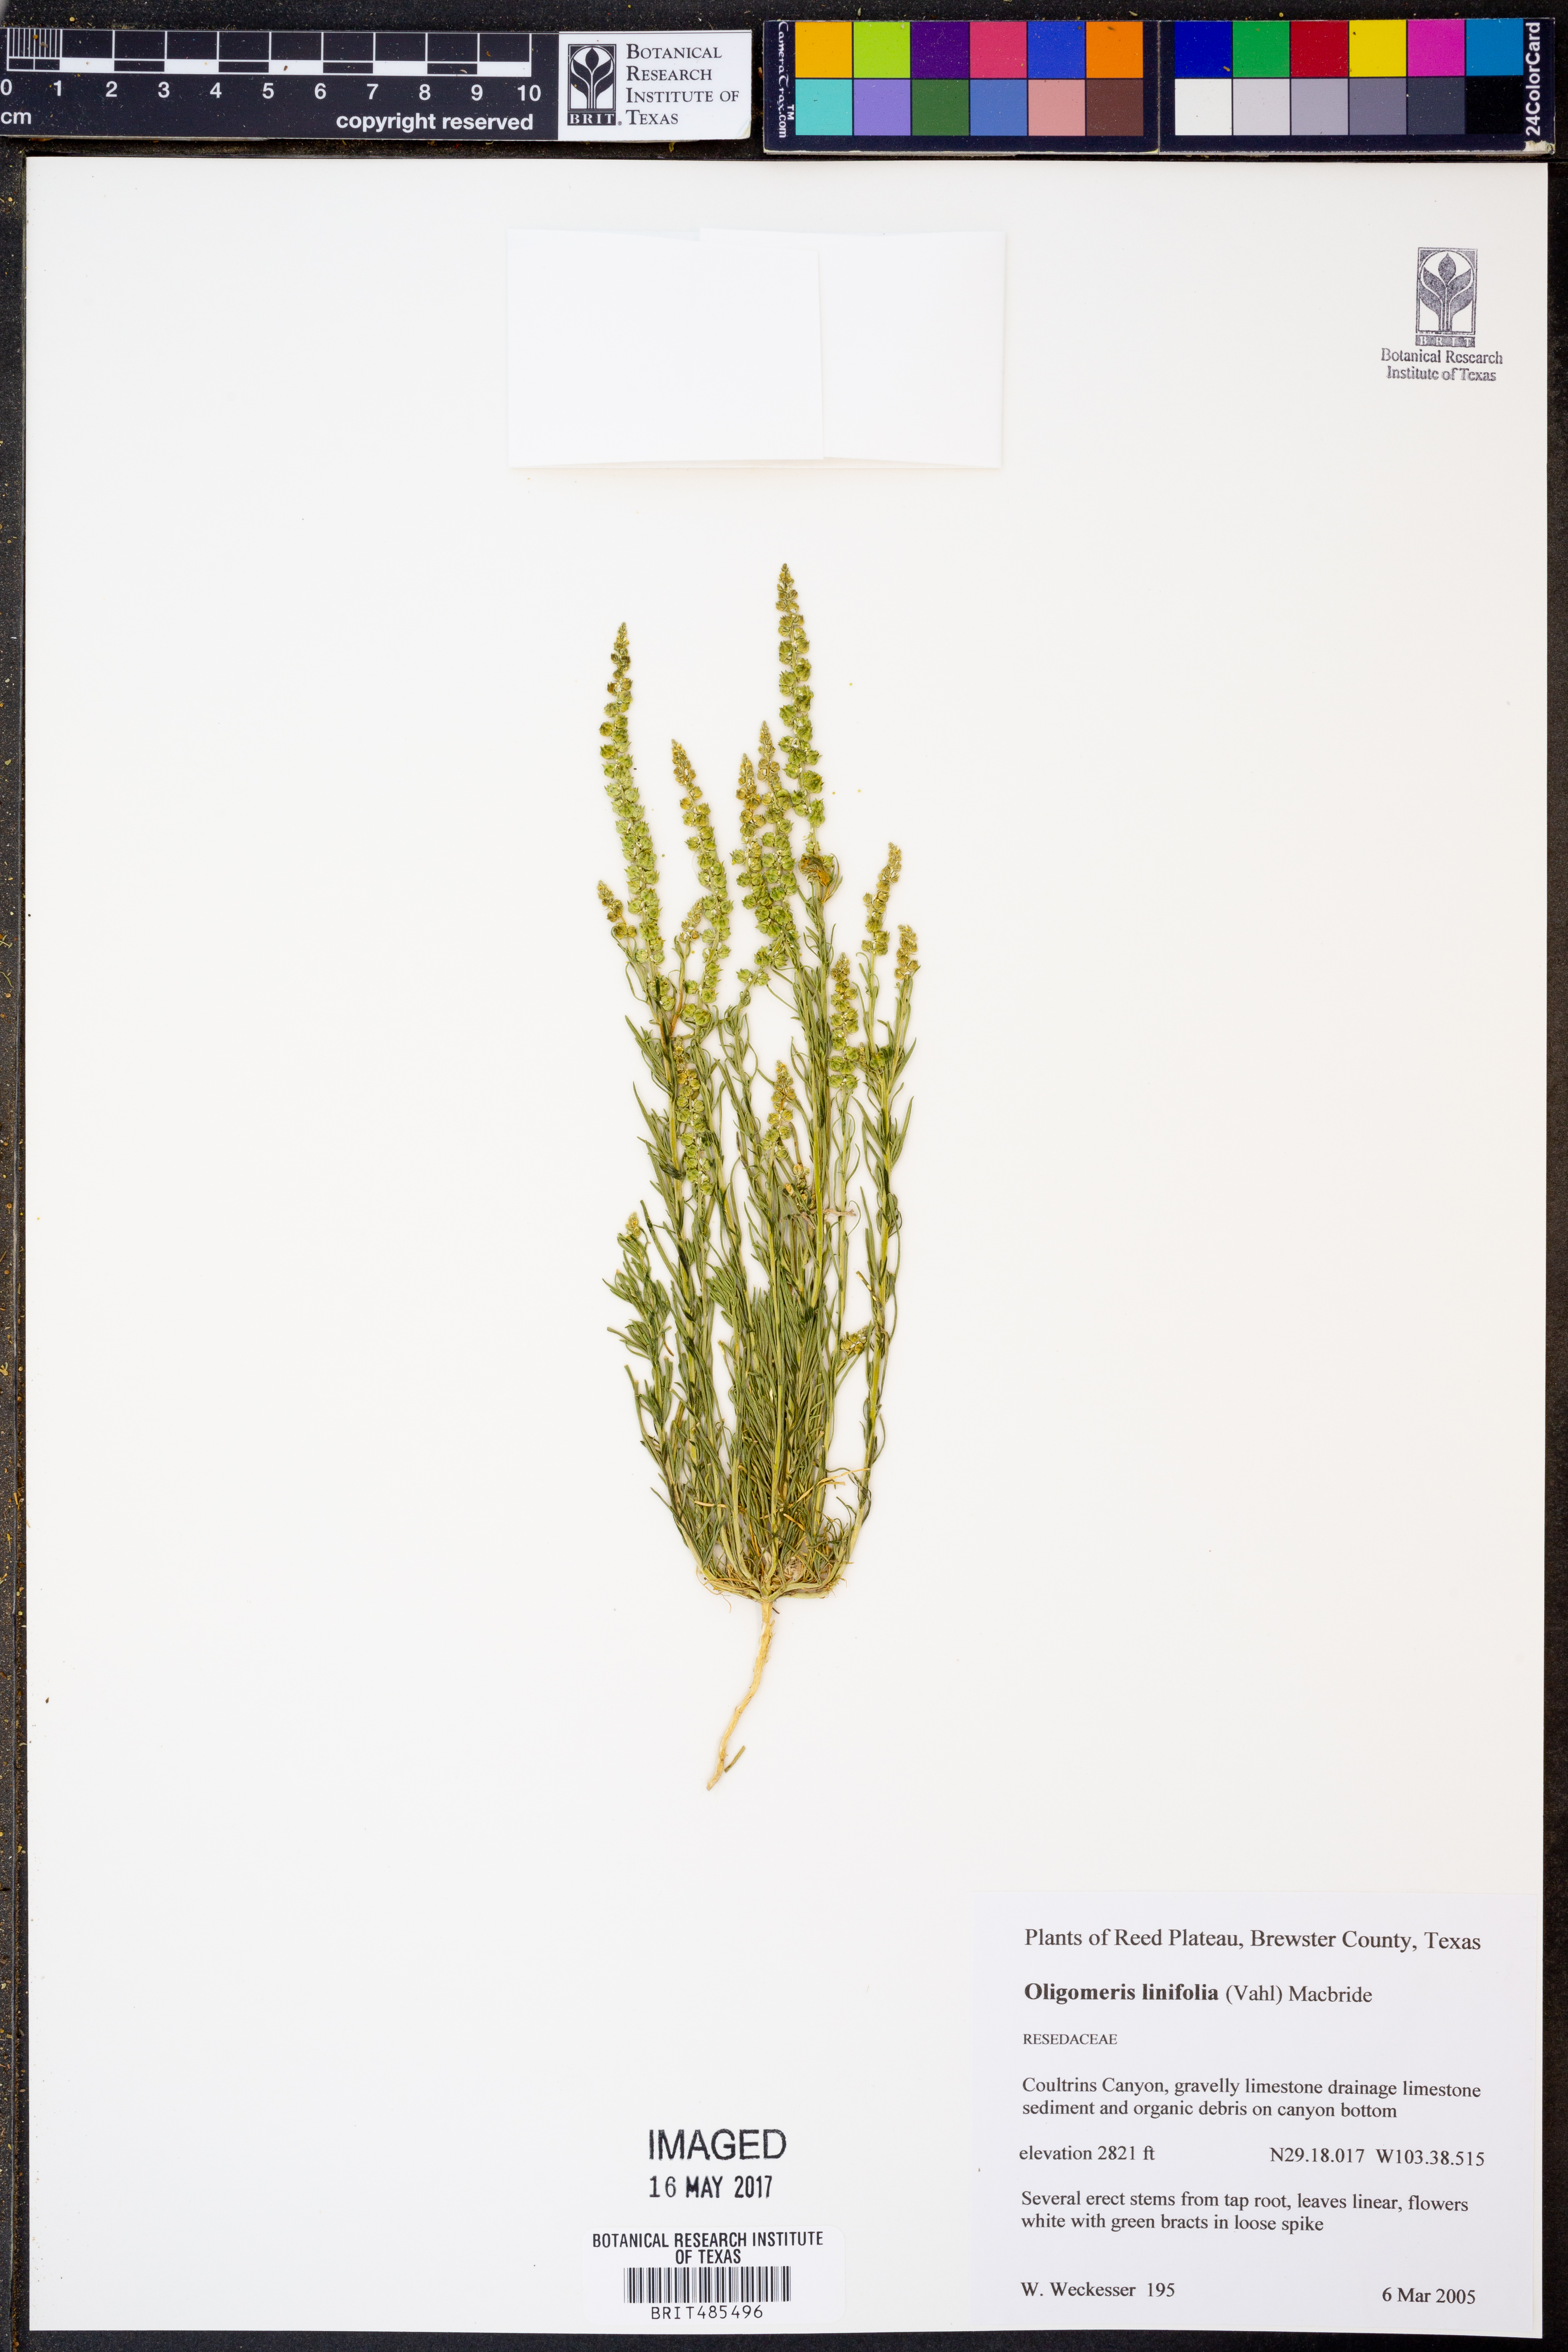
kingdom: Plantae
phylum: Tracheophyta
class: Magnoliopsida
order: Brassicales
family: Resedaceae
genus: Oligomeris
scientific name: Oligomeris linifolia
